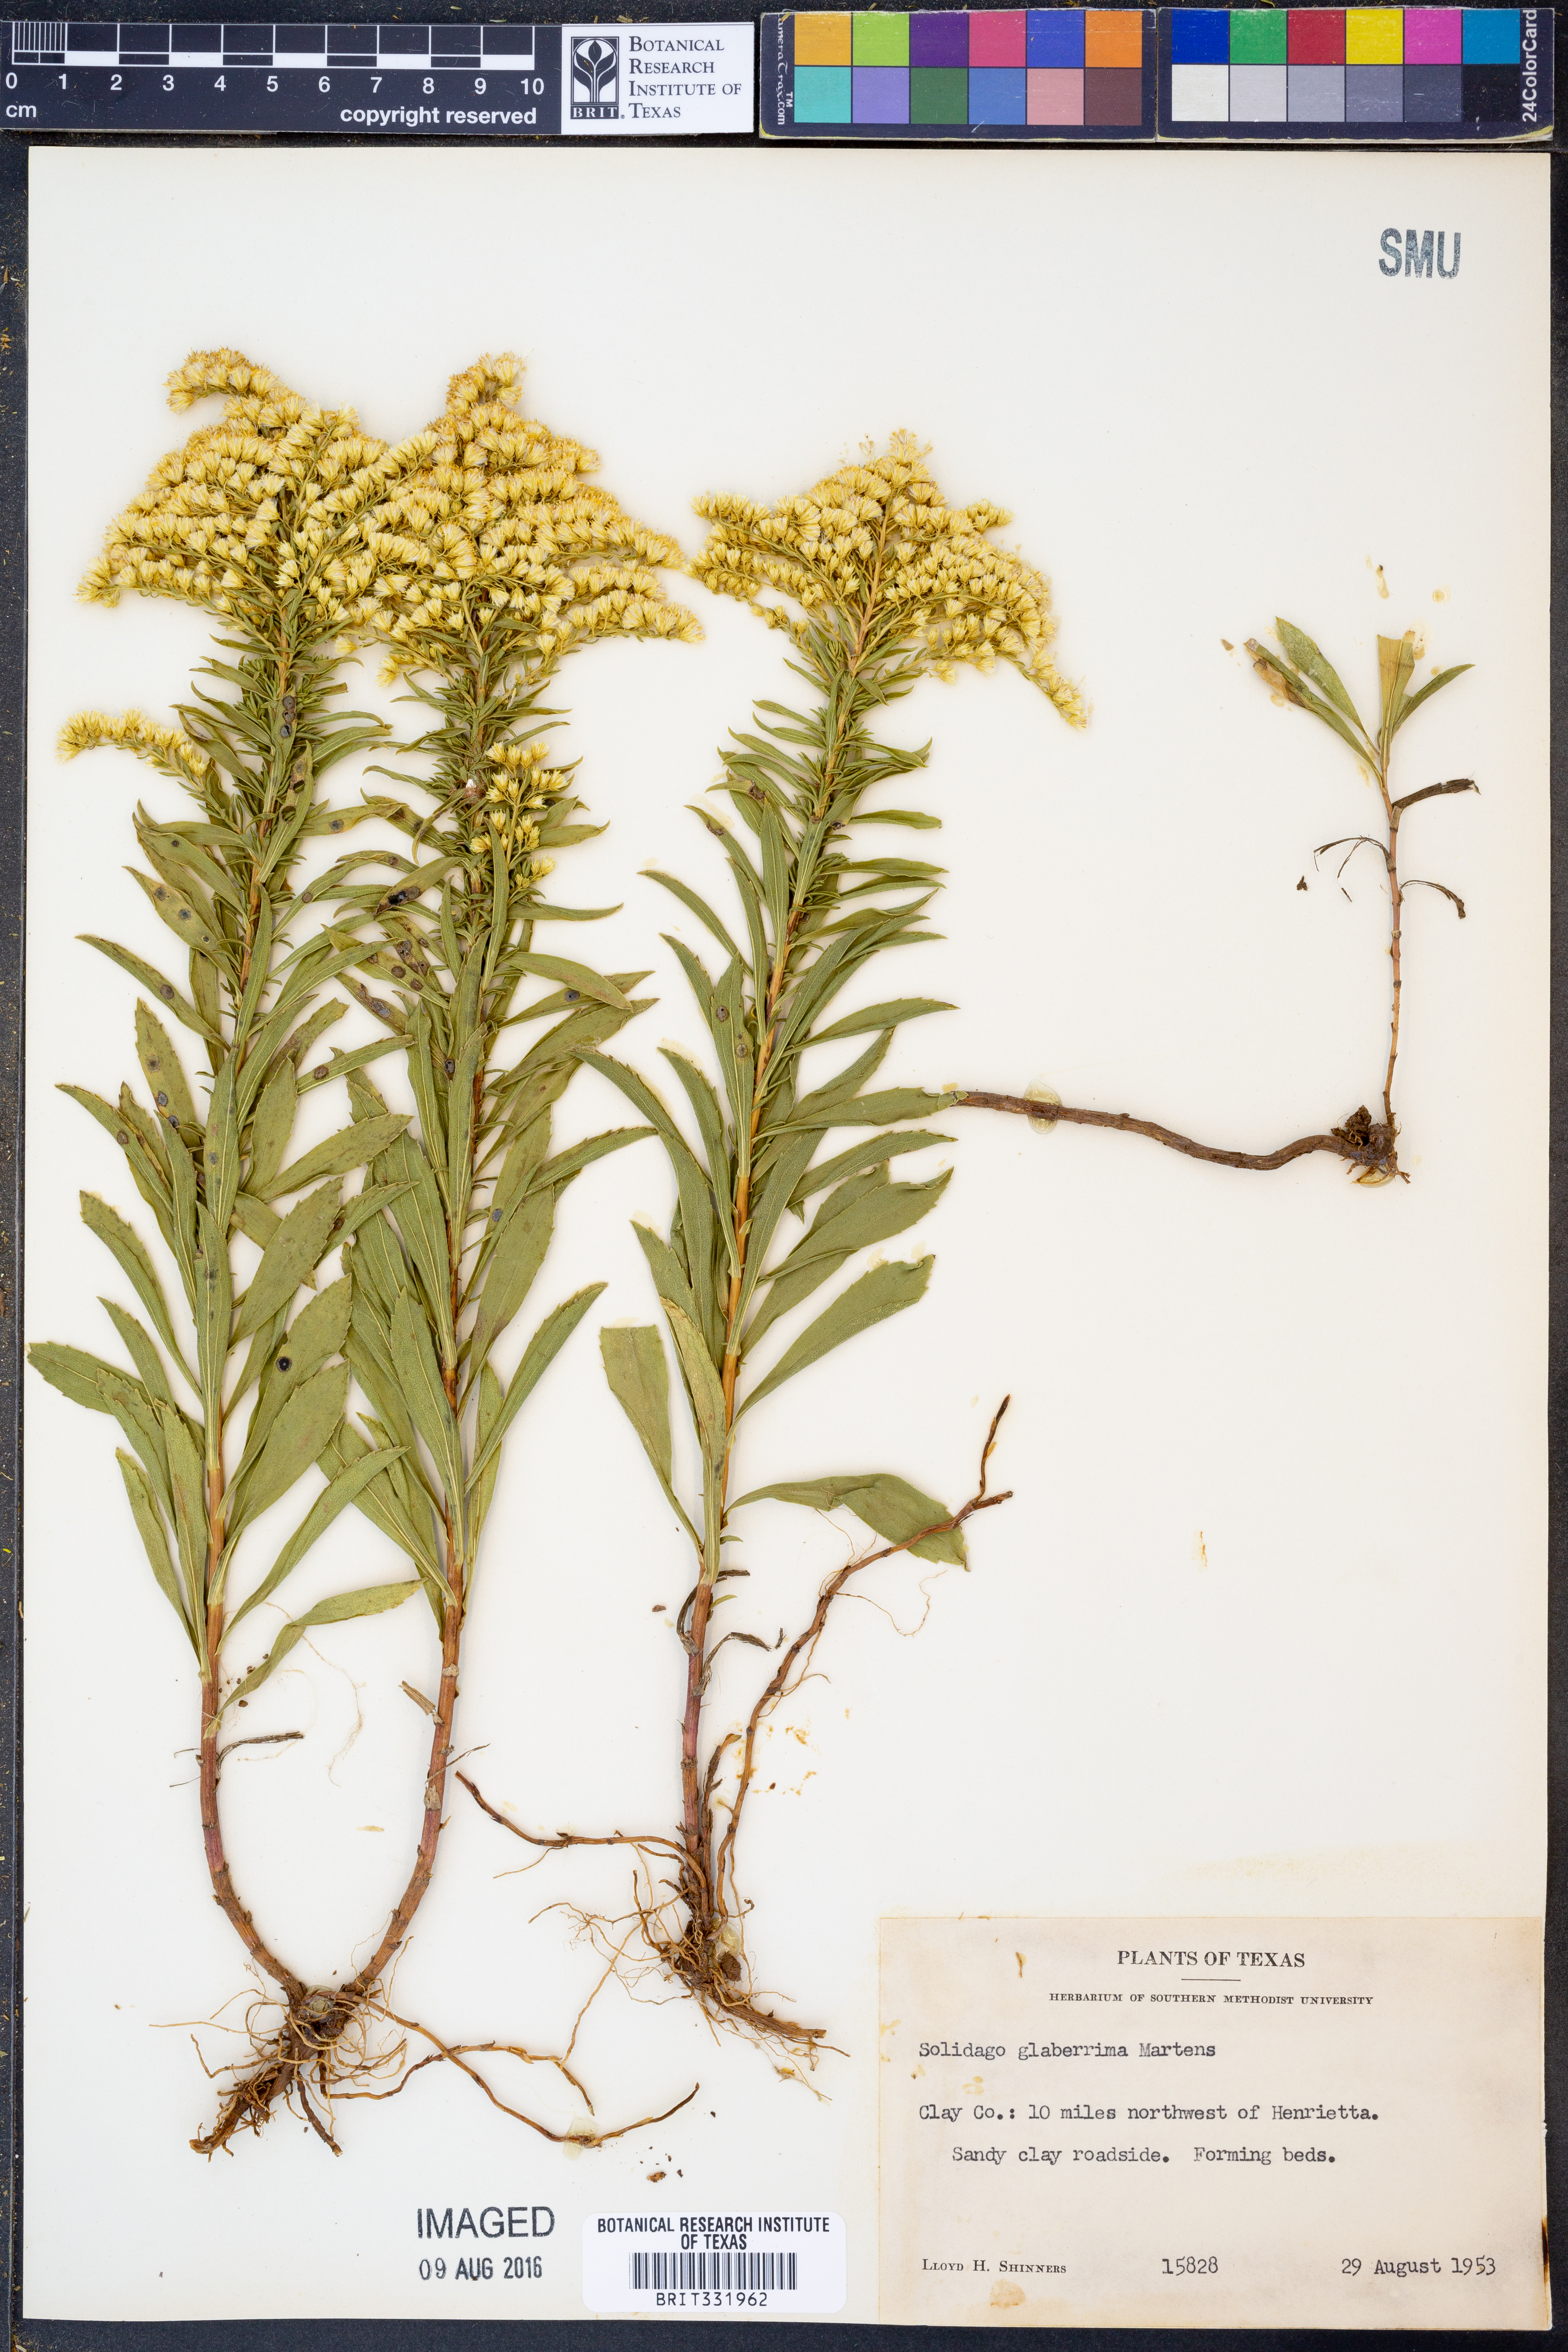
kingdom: Plantae
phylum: Tracheophyta
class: Magnoliopsida
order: Asterales
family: Asteraceae
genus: Solidago
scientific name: Solidago missouriensis
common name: Prairie goldenrod
